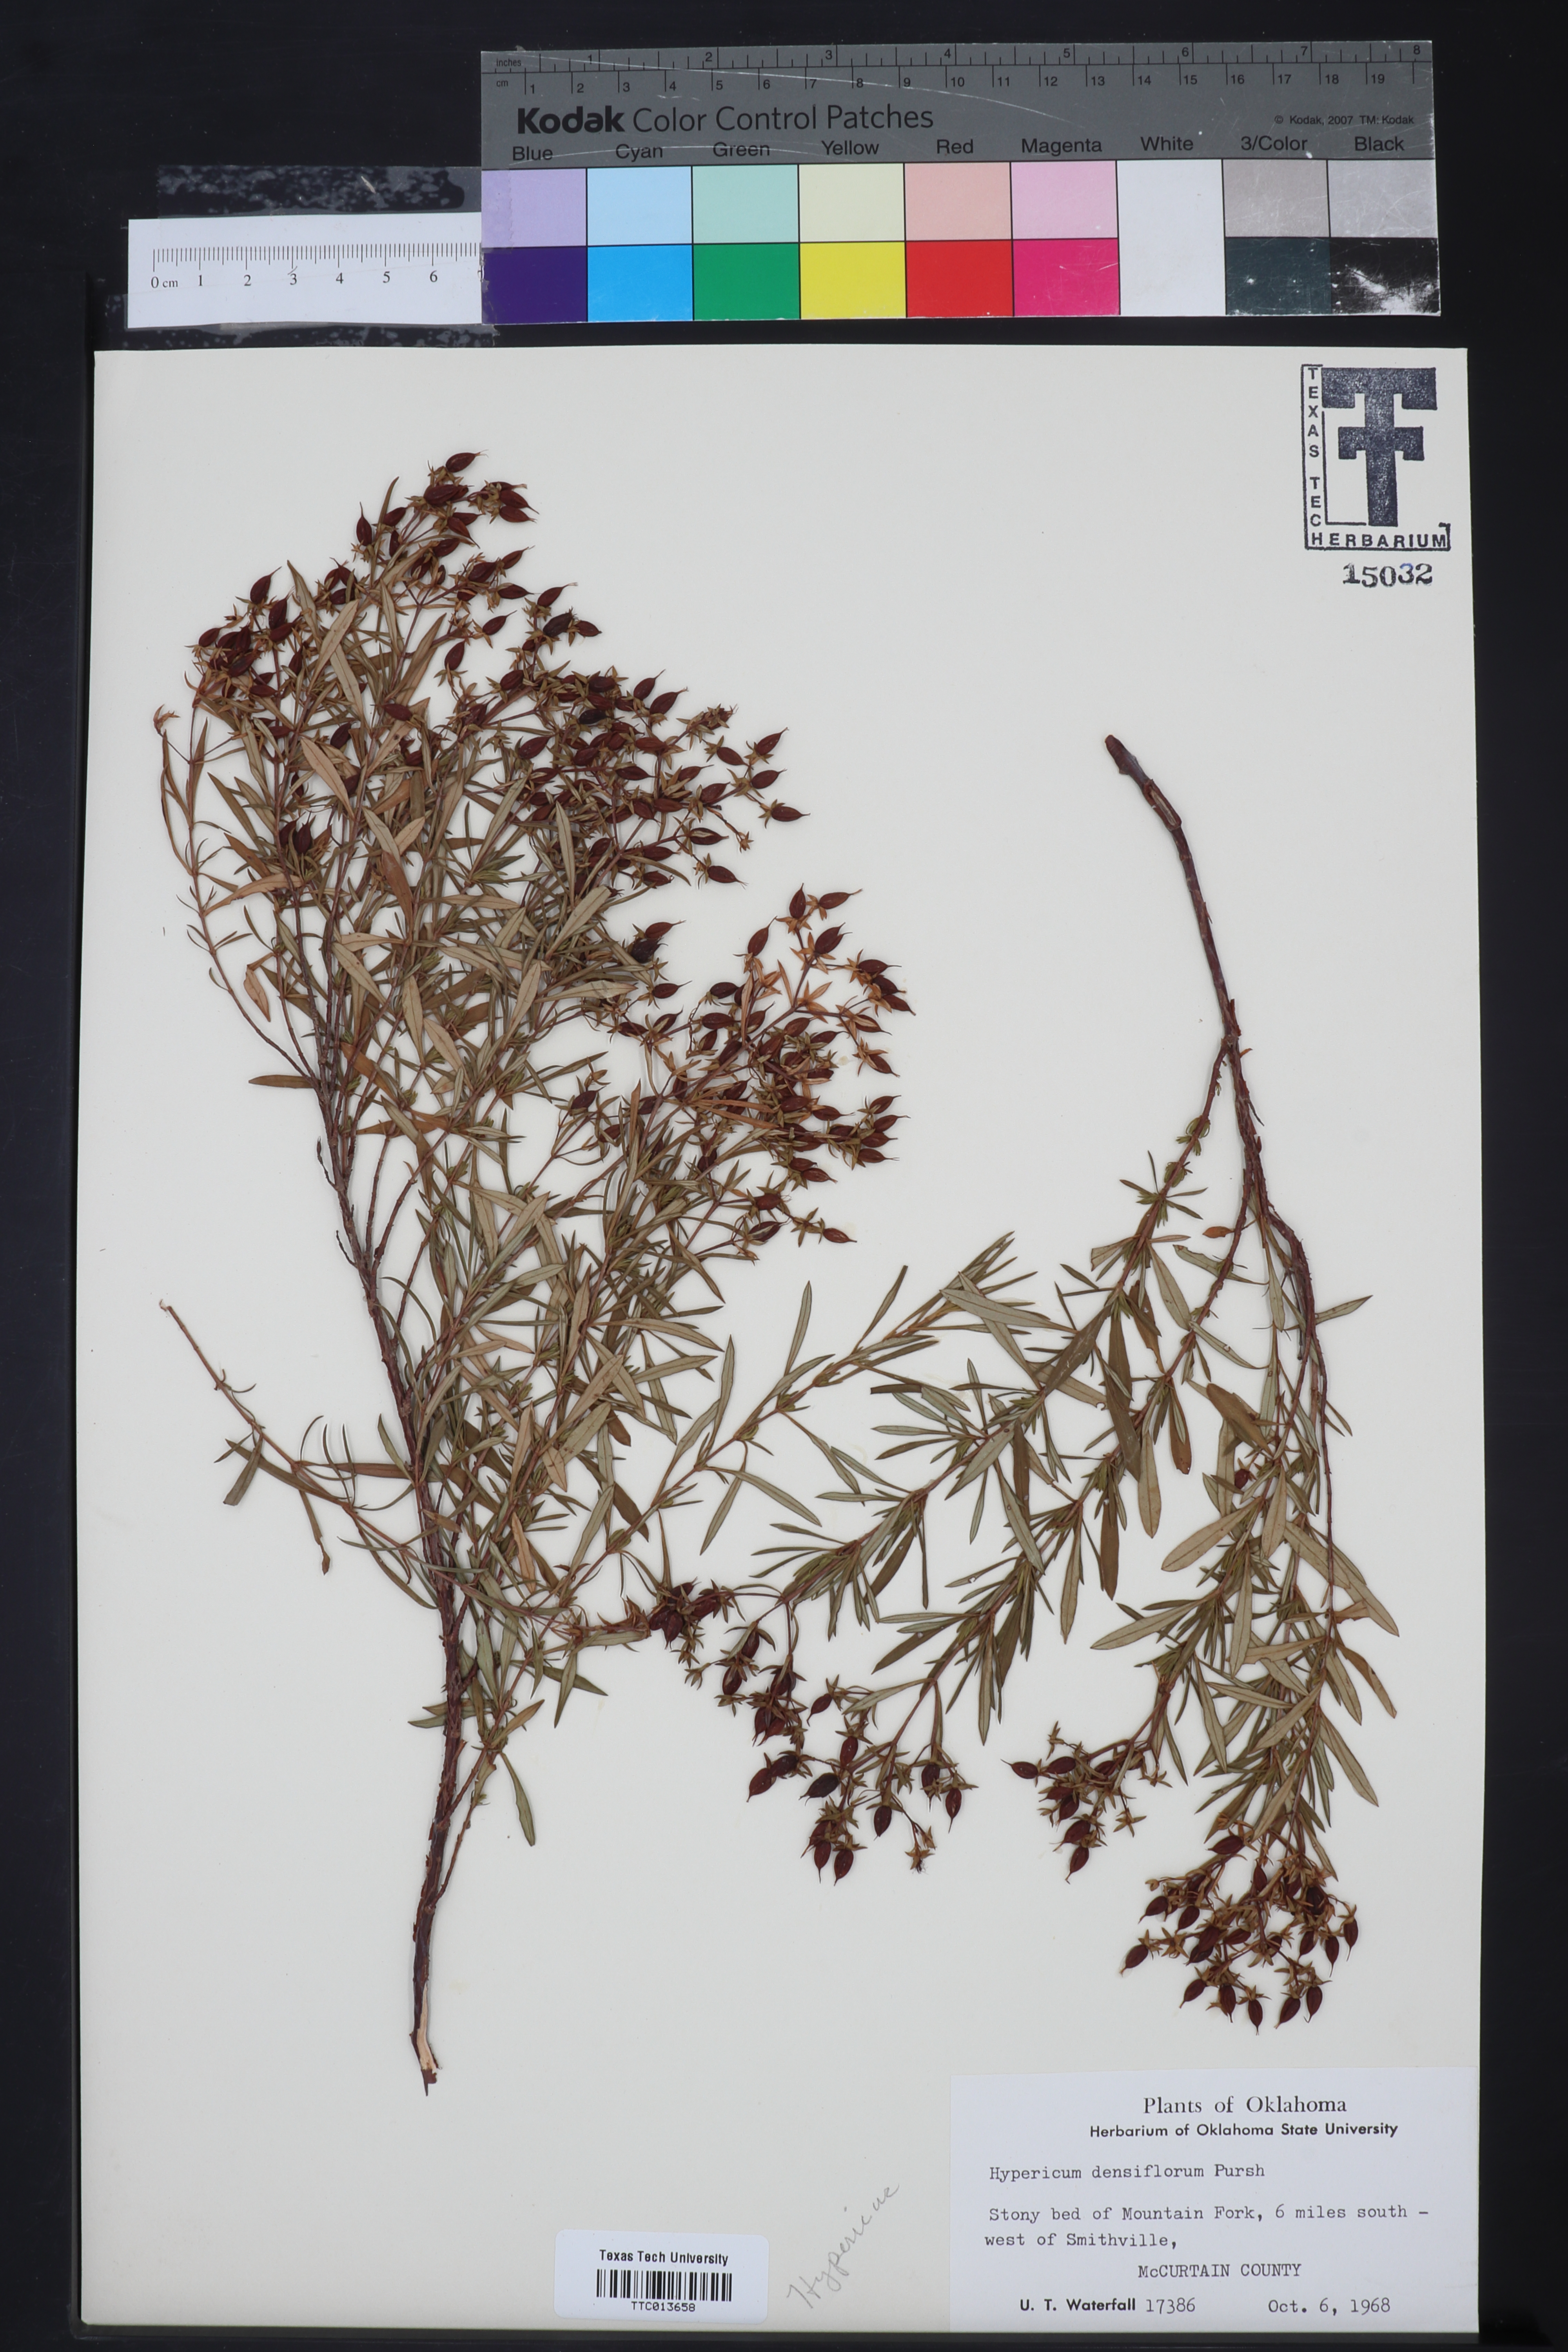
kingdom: Plantae
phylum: Tracheophyta
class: Magnoliopsida
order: Malpighiales
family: Hypericaceae
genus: Hypericum
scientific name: Hypericum densiflorum
